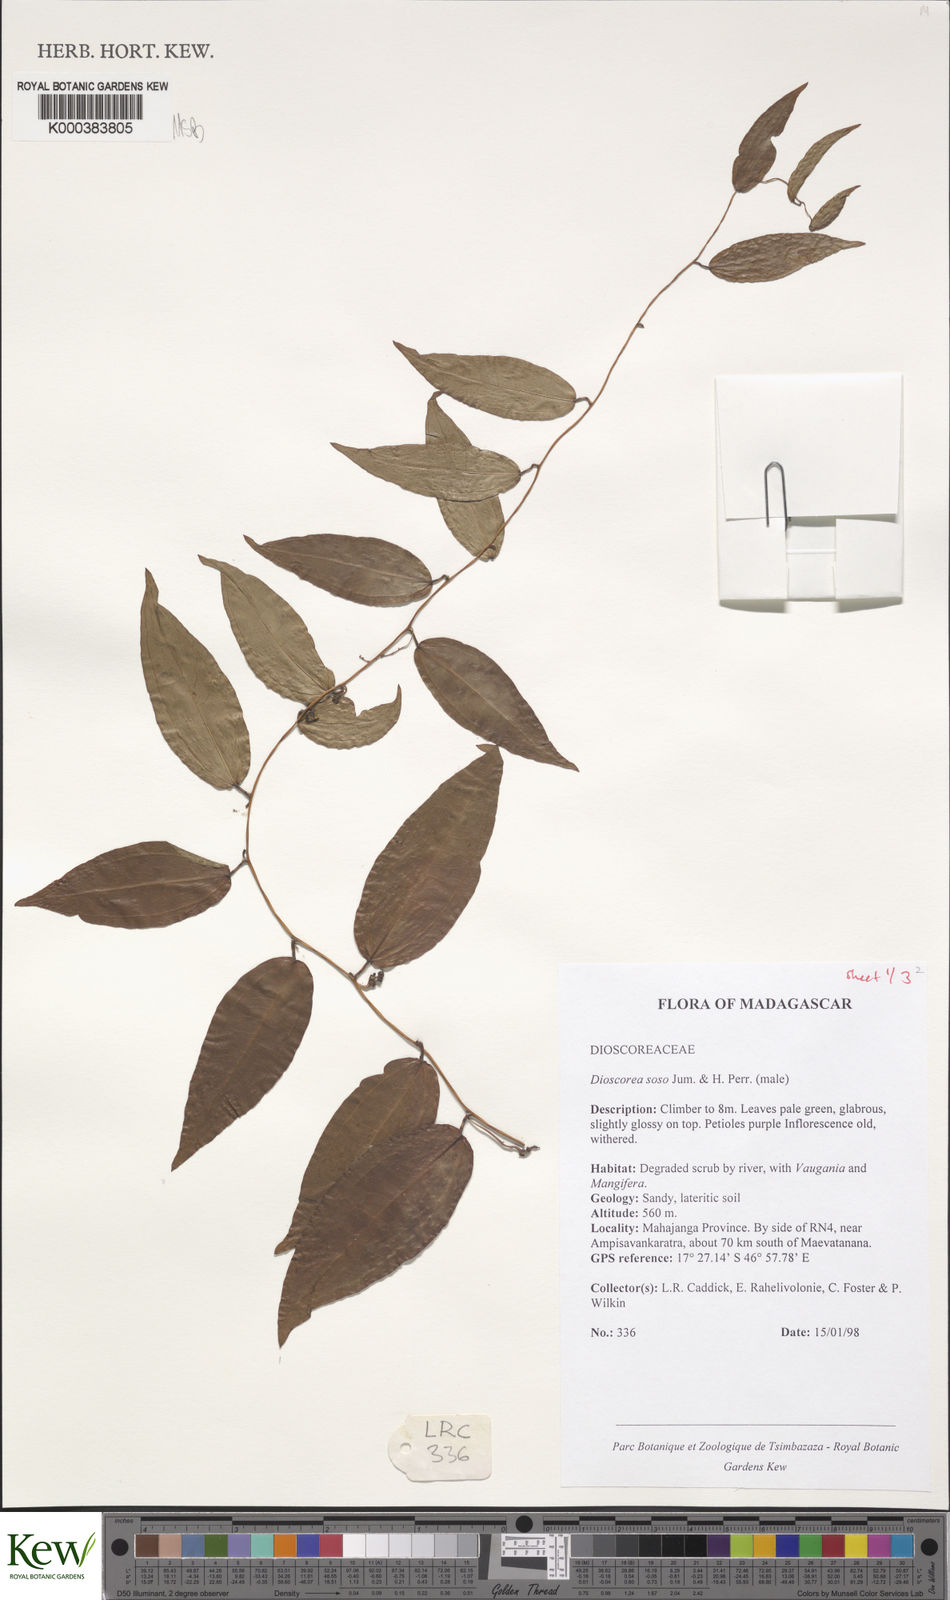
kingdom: Plantae
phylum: Tracheophyta
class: Liliopsida
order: Dioscoreales
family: Dioscoreaceae
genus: Dioscorea
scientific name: Dioscorea
